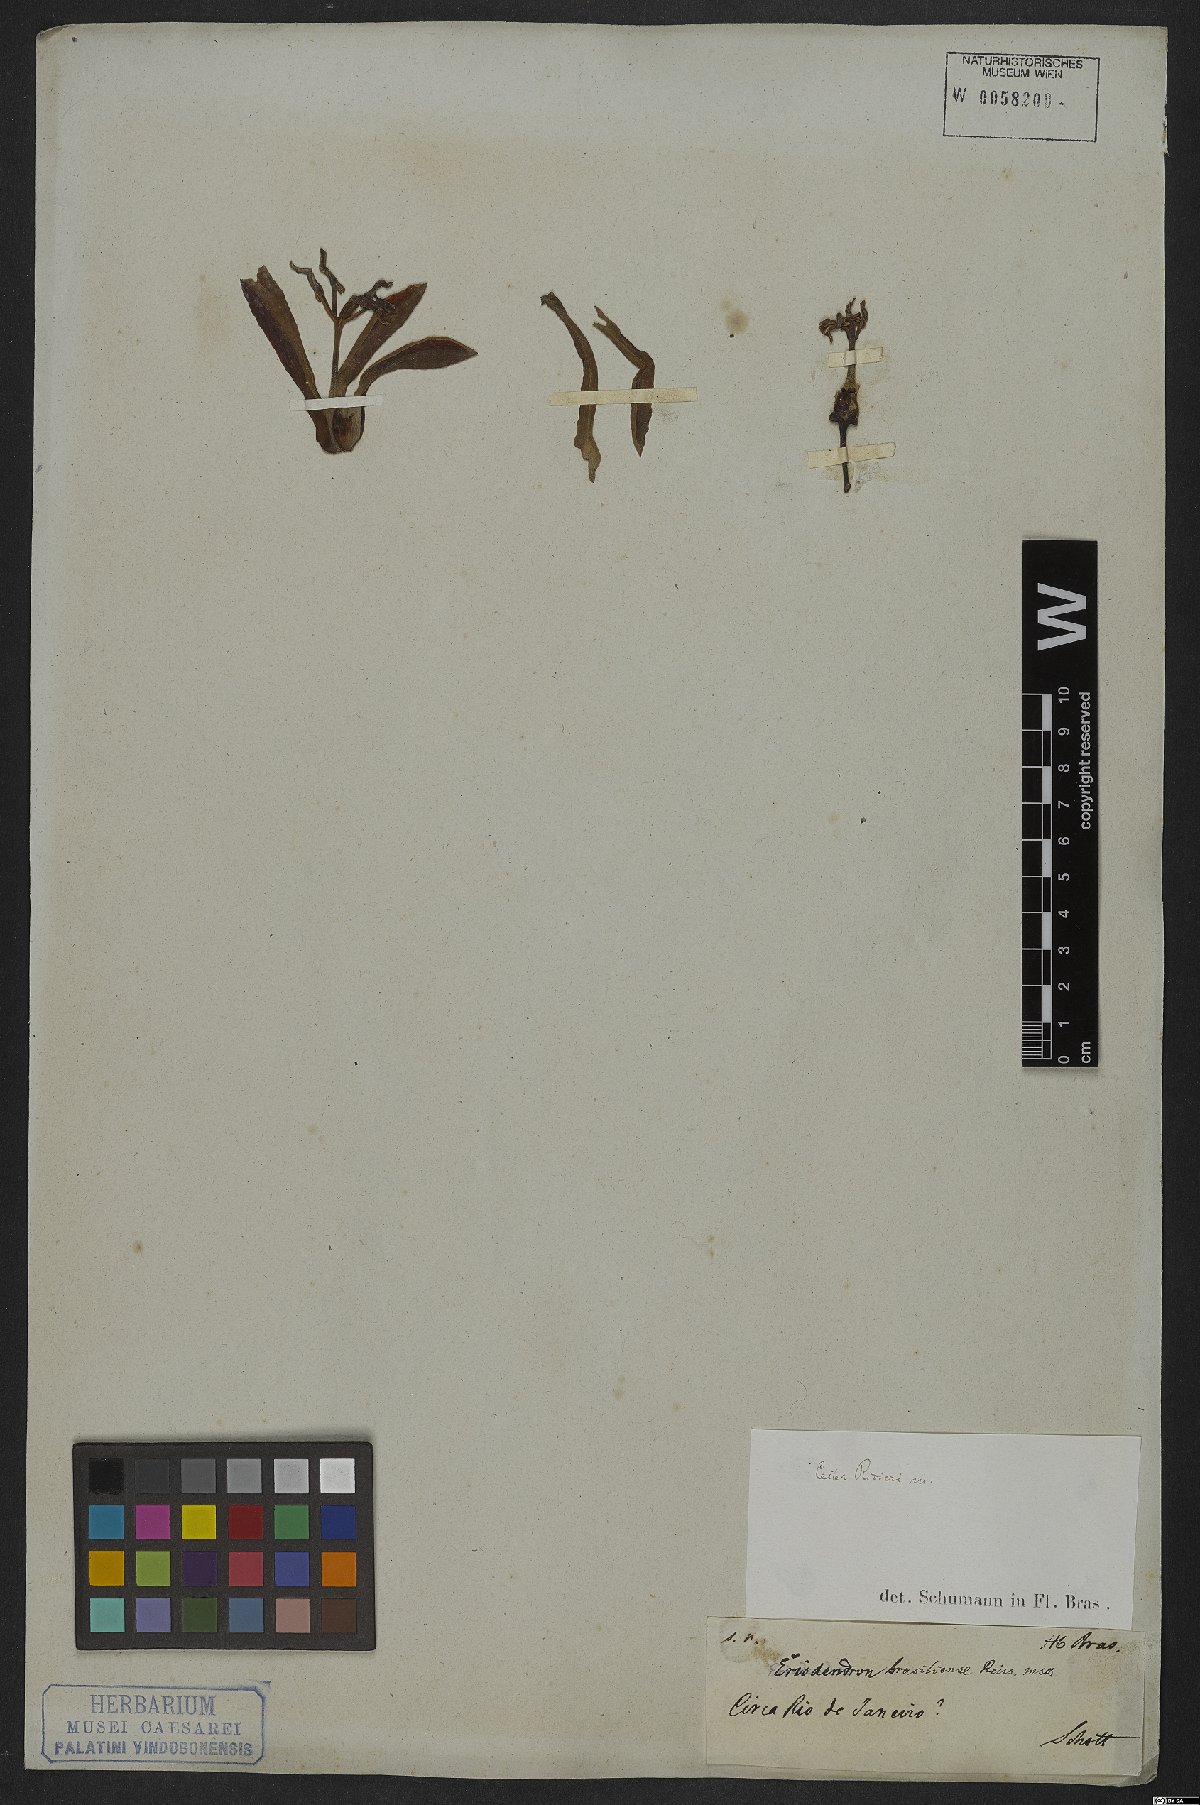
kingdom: Plantae
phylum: Tracheophyta
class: Magnoliopsida
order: Malvales
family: Malvaceae
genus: Spirotheca
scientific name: Spirotheca rivieri
